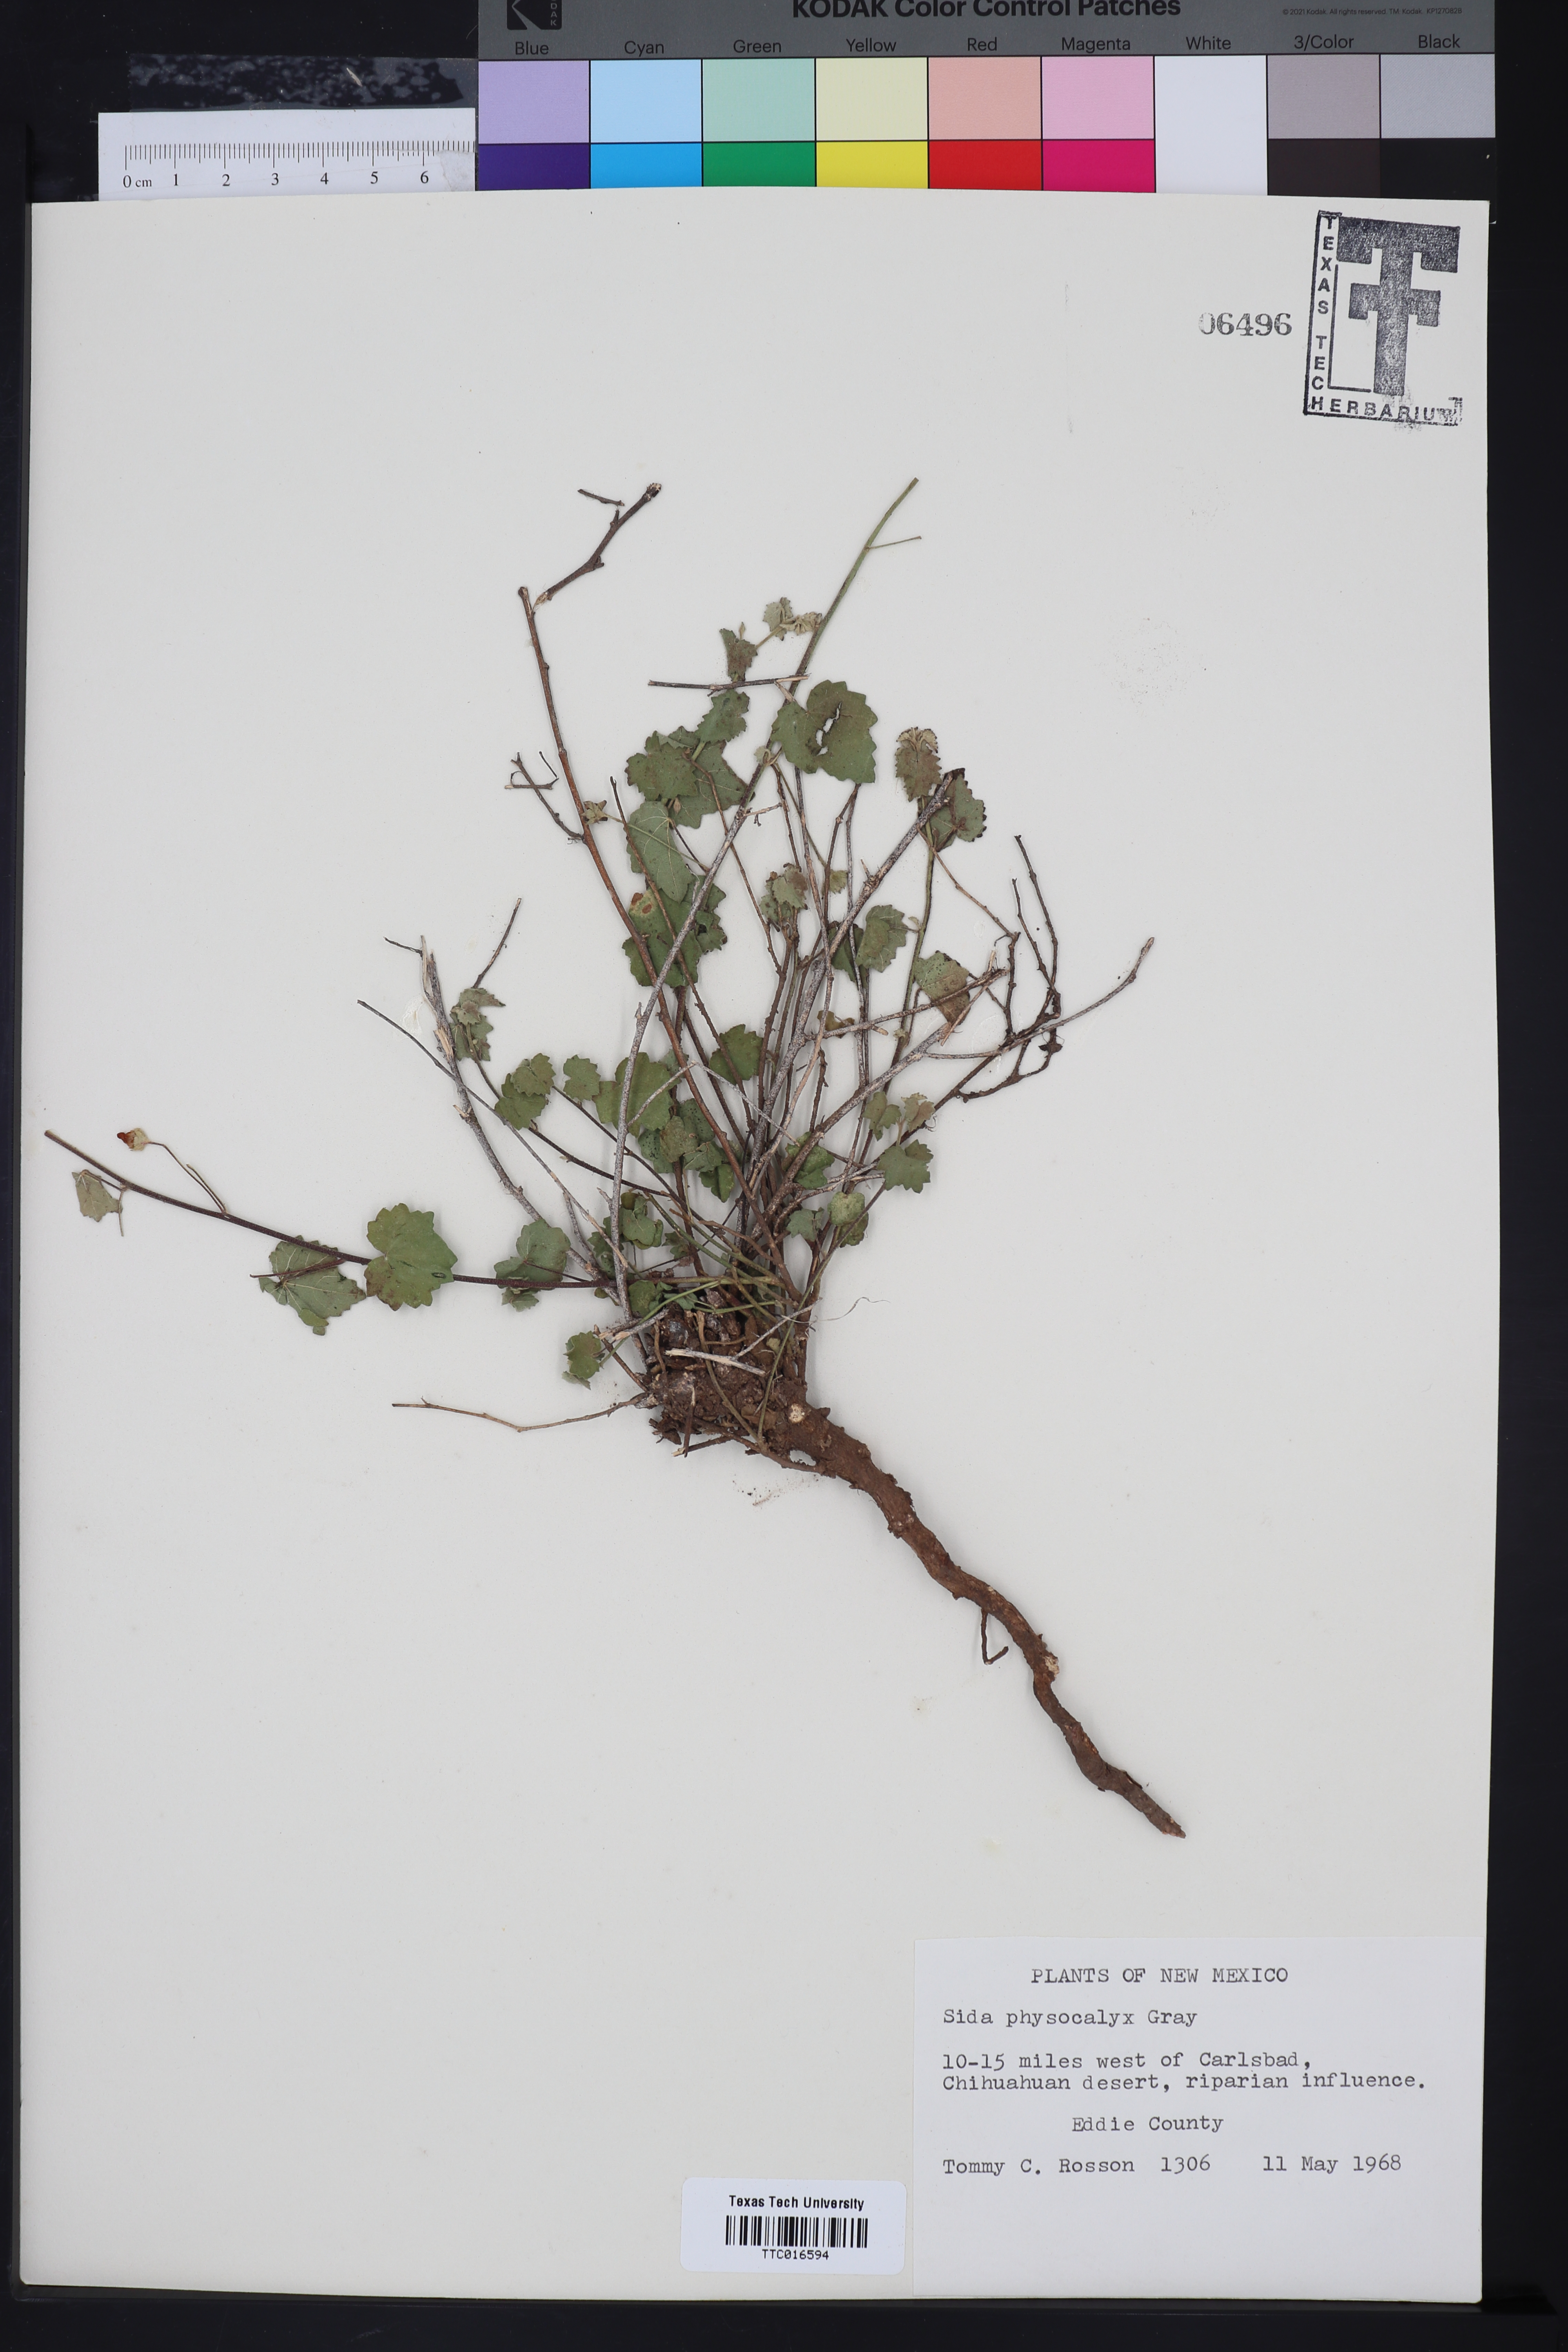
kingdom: Plantae
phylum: Tracheophyta
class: Magnoliopsida
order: Malvales
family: Malvaceae
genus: Rhynchosida
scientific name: Rhynchosida physocalyx
